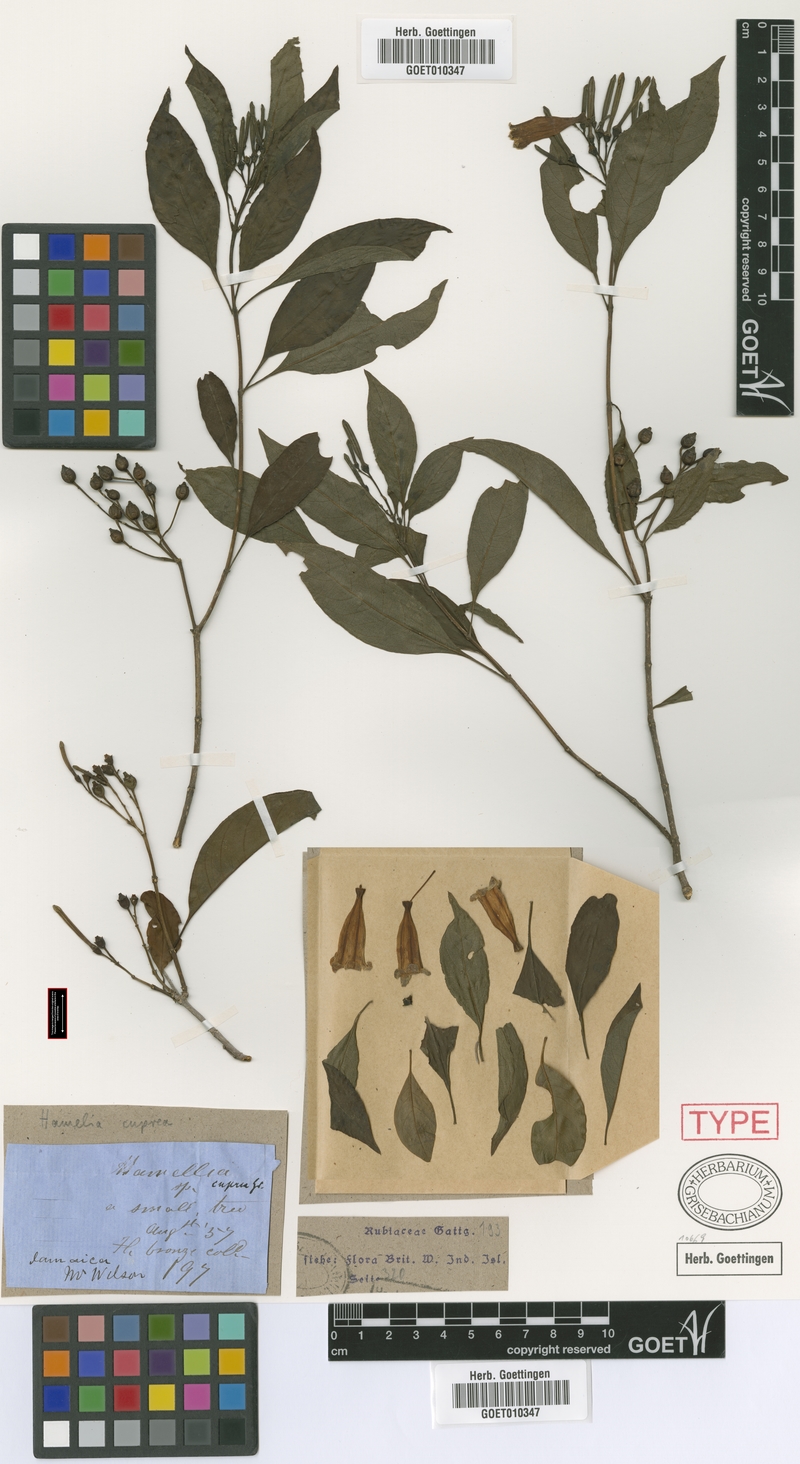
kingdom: Plantae
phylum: Tracheophyta
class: Magnoliopsida
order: Gentianales
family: Rubiaceae
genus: Hamelia
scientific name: Hamelia cuprea
